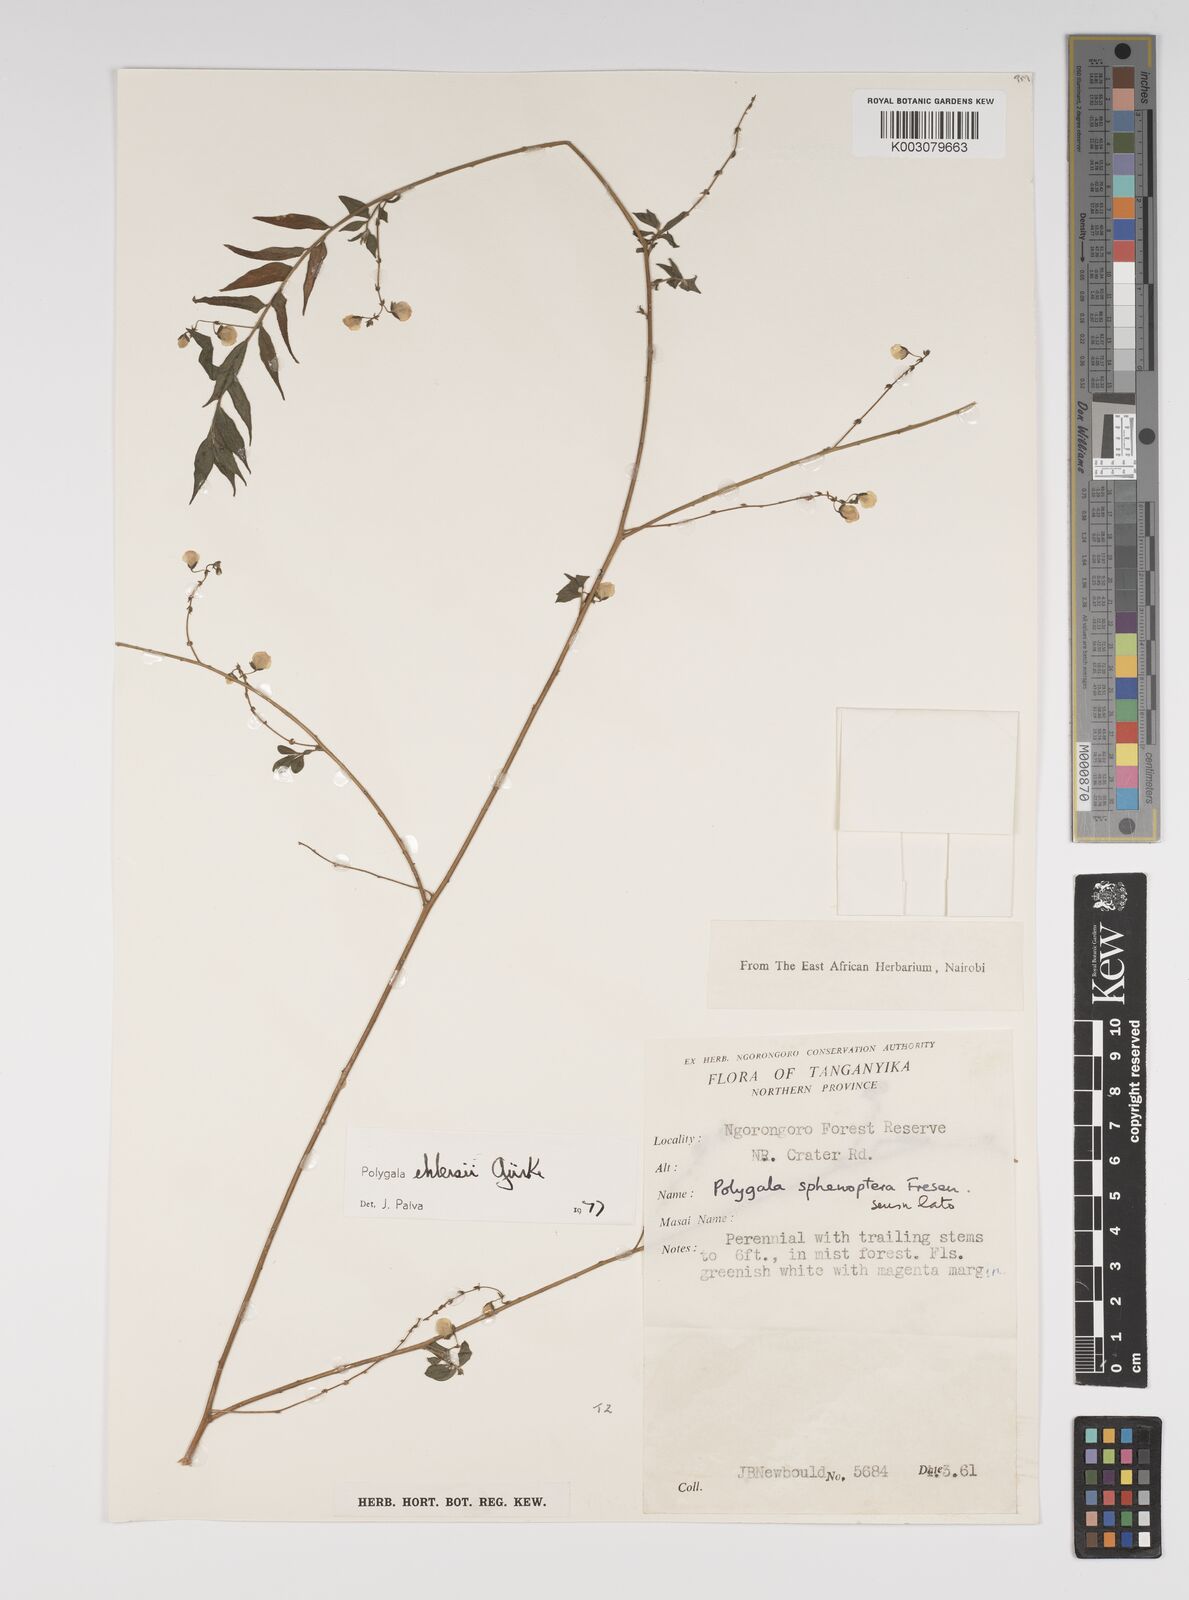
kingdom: Plantae
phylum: Tracheophyta
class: Magnoliopsida
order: Fabales
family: Polygalaceae
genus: Polygala
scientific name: Polygala ehlersii
